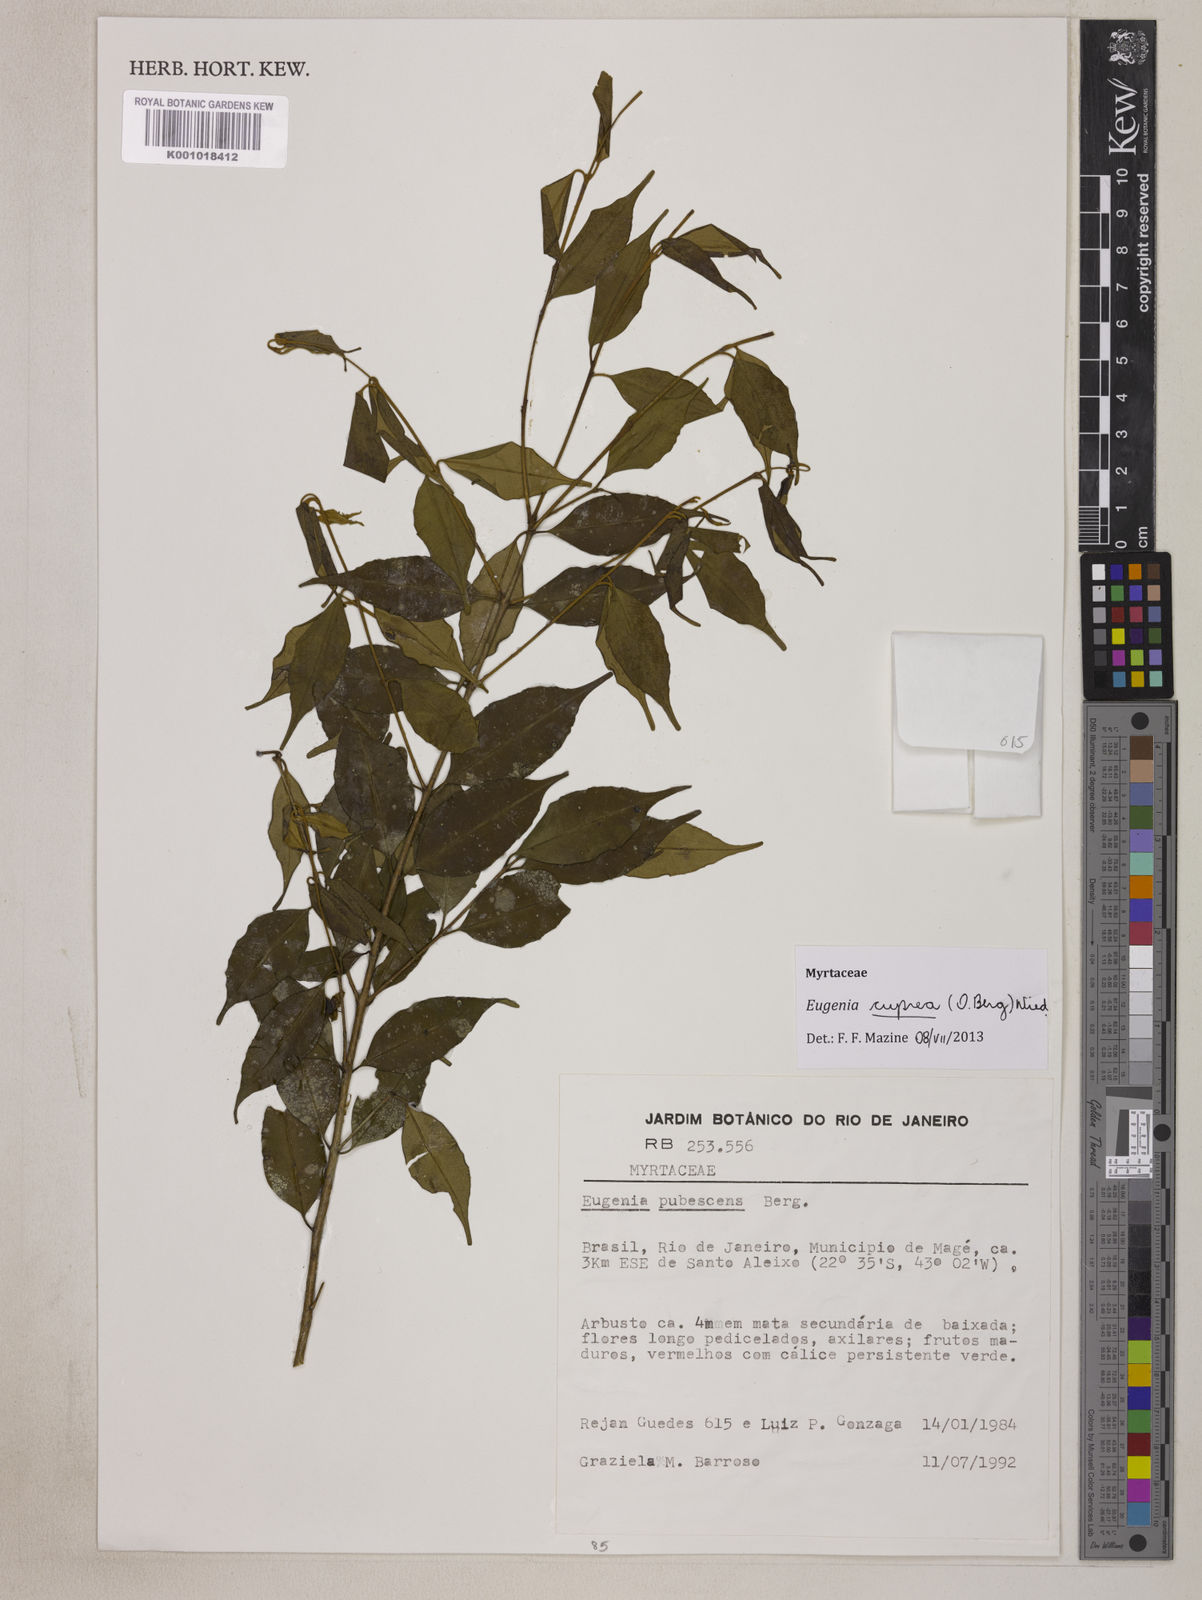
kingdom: Plantae
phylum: Tracheophyta
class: Magnoliopsida
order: Myrtales
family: Myrtaceae
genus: Eugenia
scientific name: Eugenia cuprea
